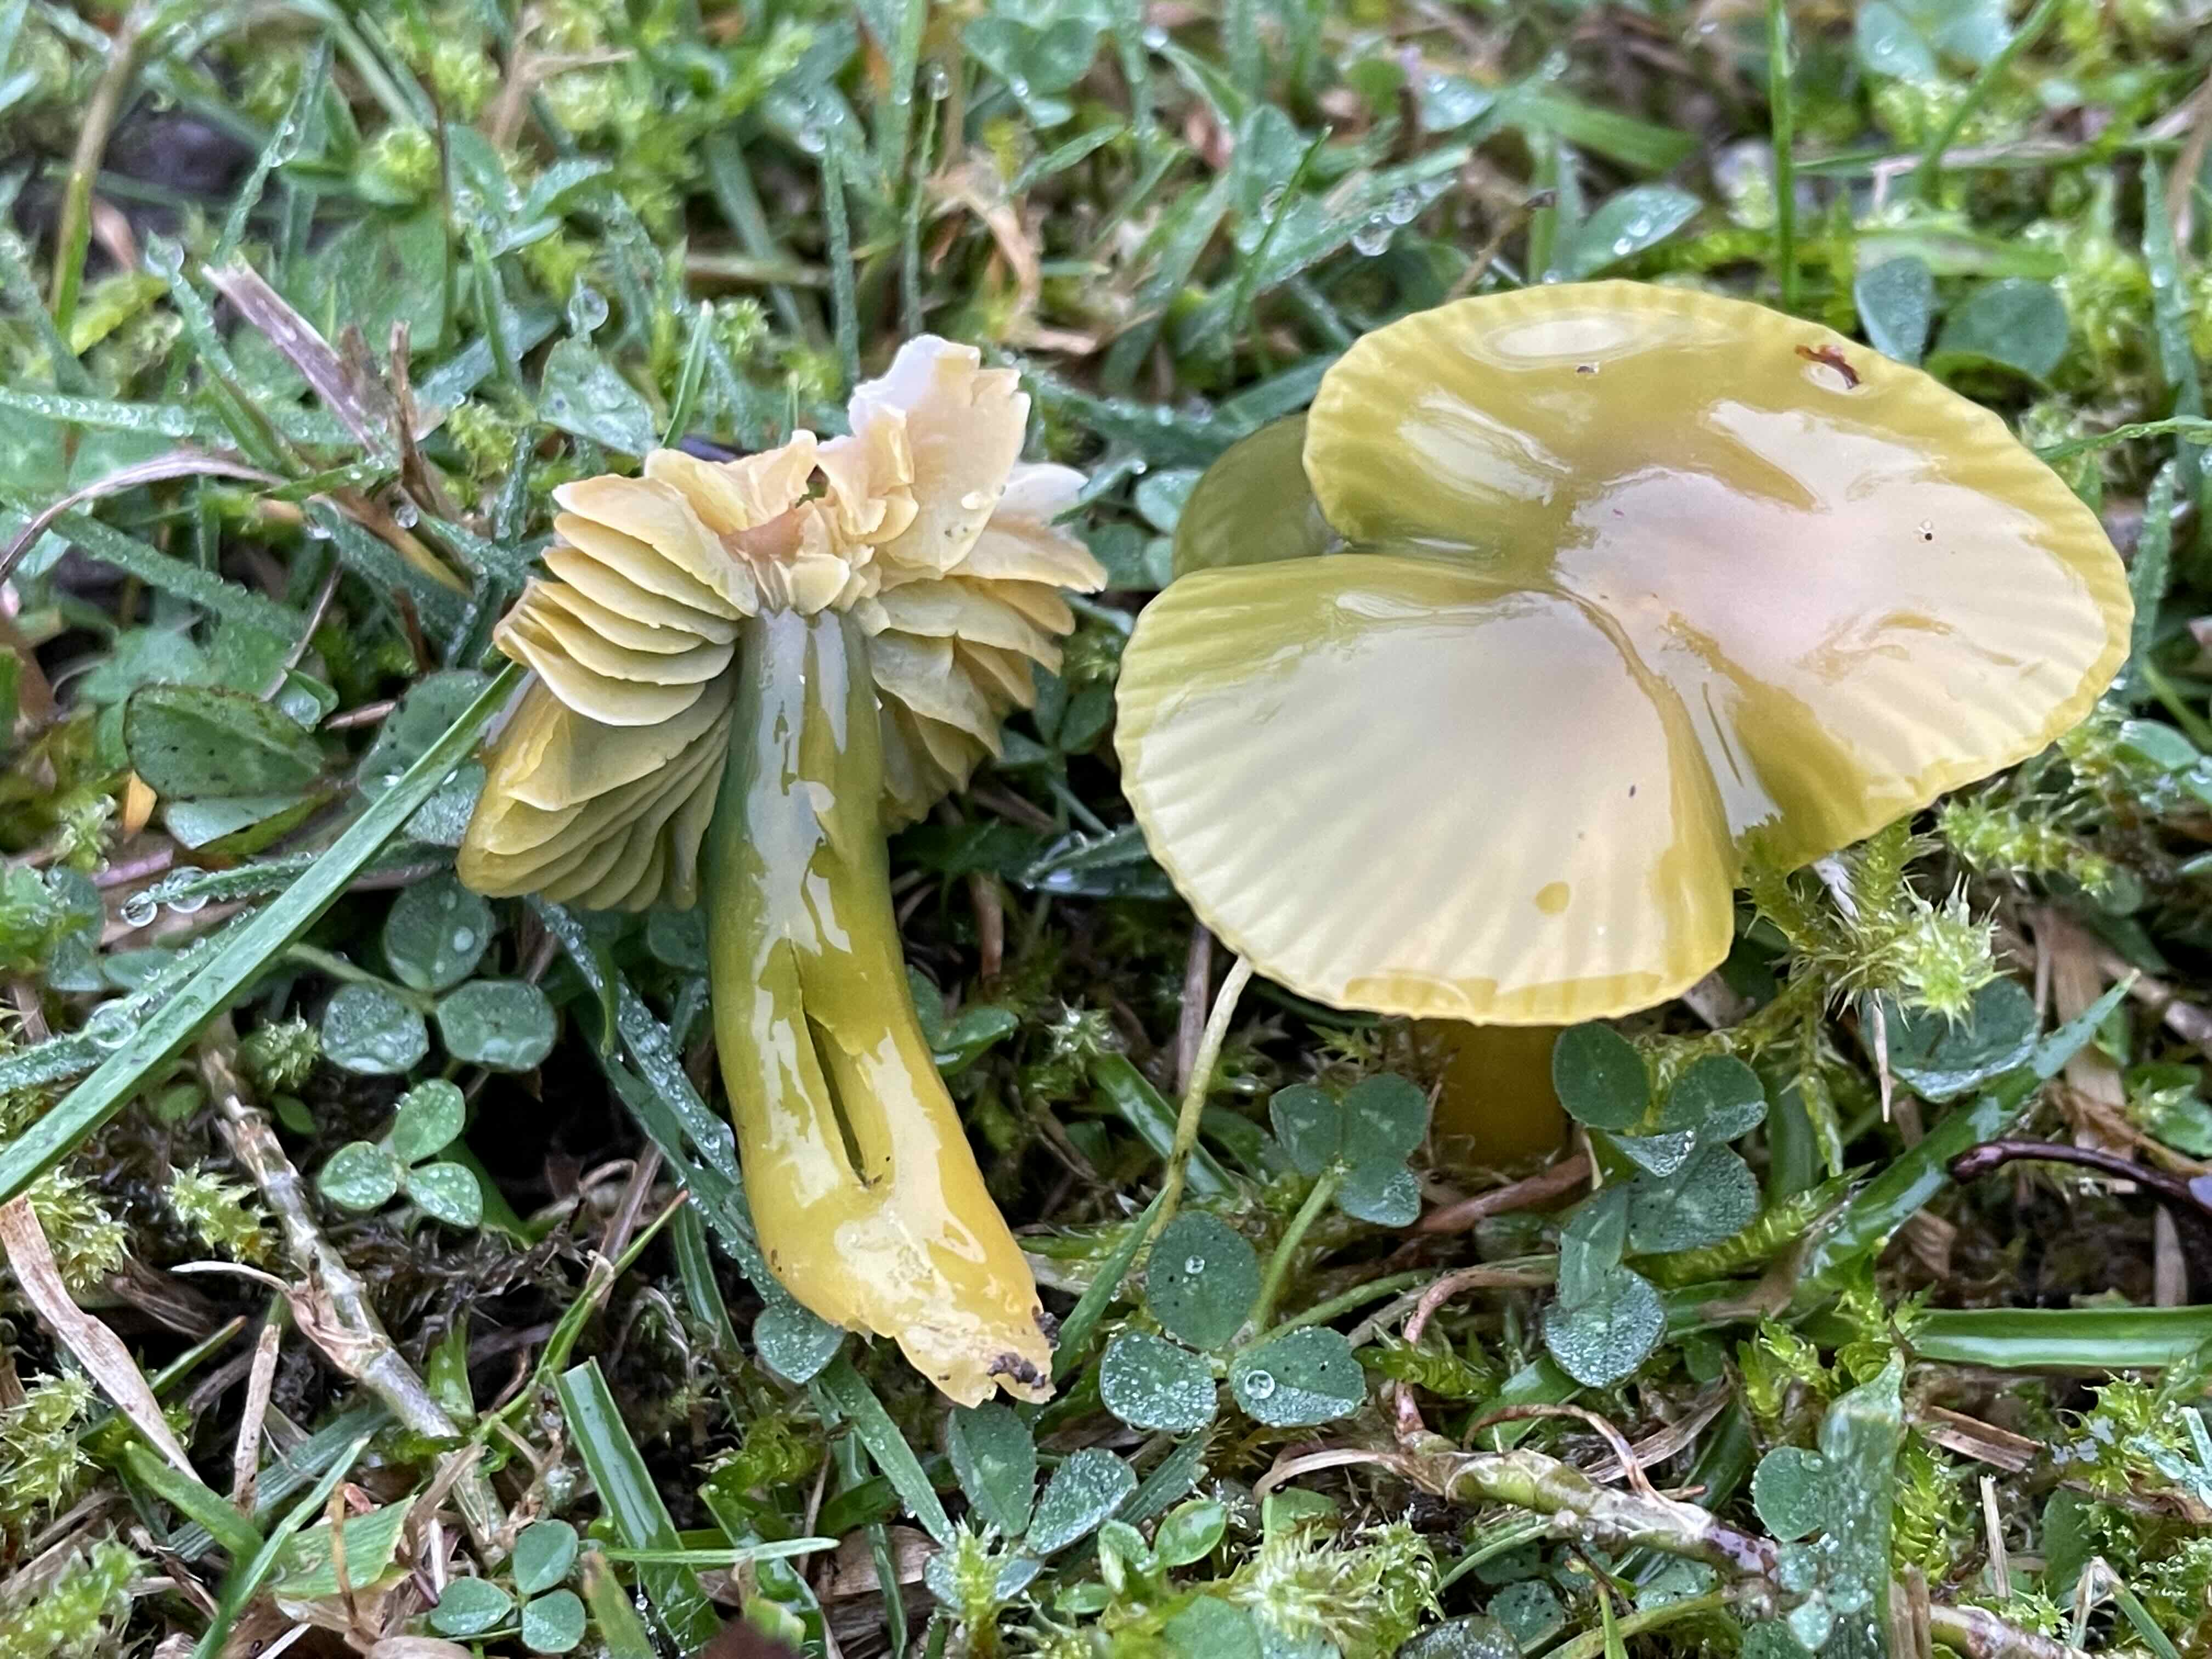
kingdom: Fungi
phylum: Basidiomycota
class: Agaricomycetes
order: Agaricales
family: Hygrophoraceae
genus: Gliophorus
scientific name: Gliophorus psittacinus
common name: papegøje-vokshat
